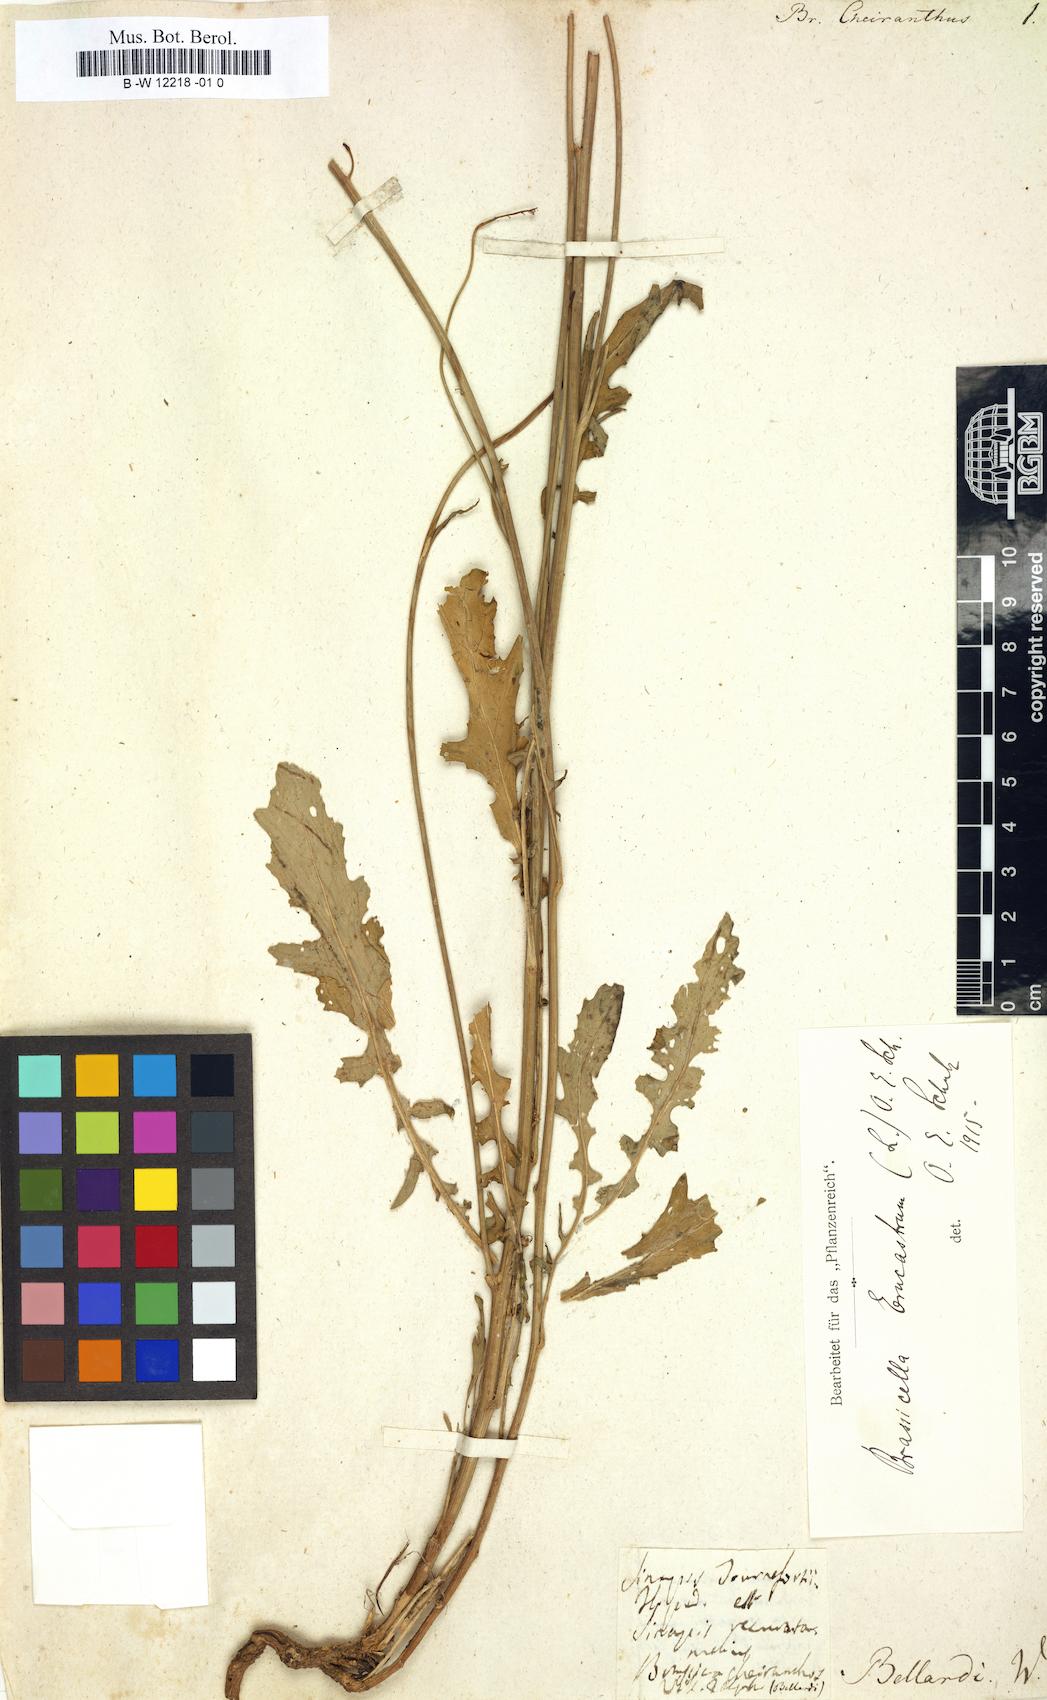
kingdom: Plantae
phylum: Tracheophyta
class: Magnoliopsida
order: Brassicales
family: Brassicaceae
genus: Coincya
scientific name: Coincya monensis
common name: Star-mustard
